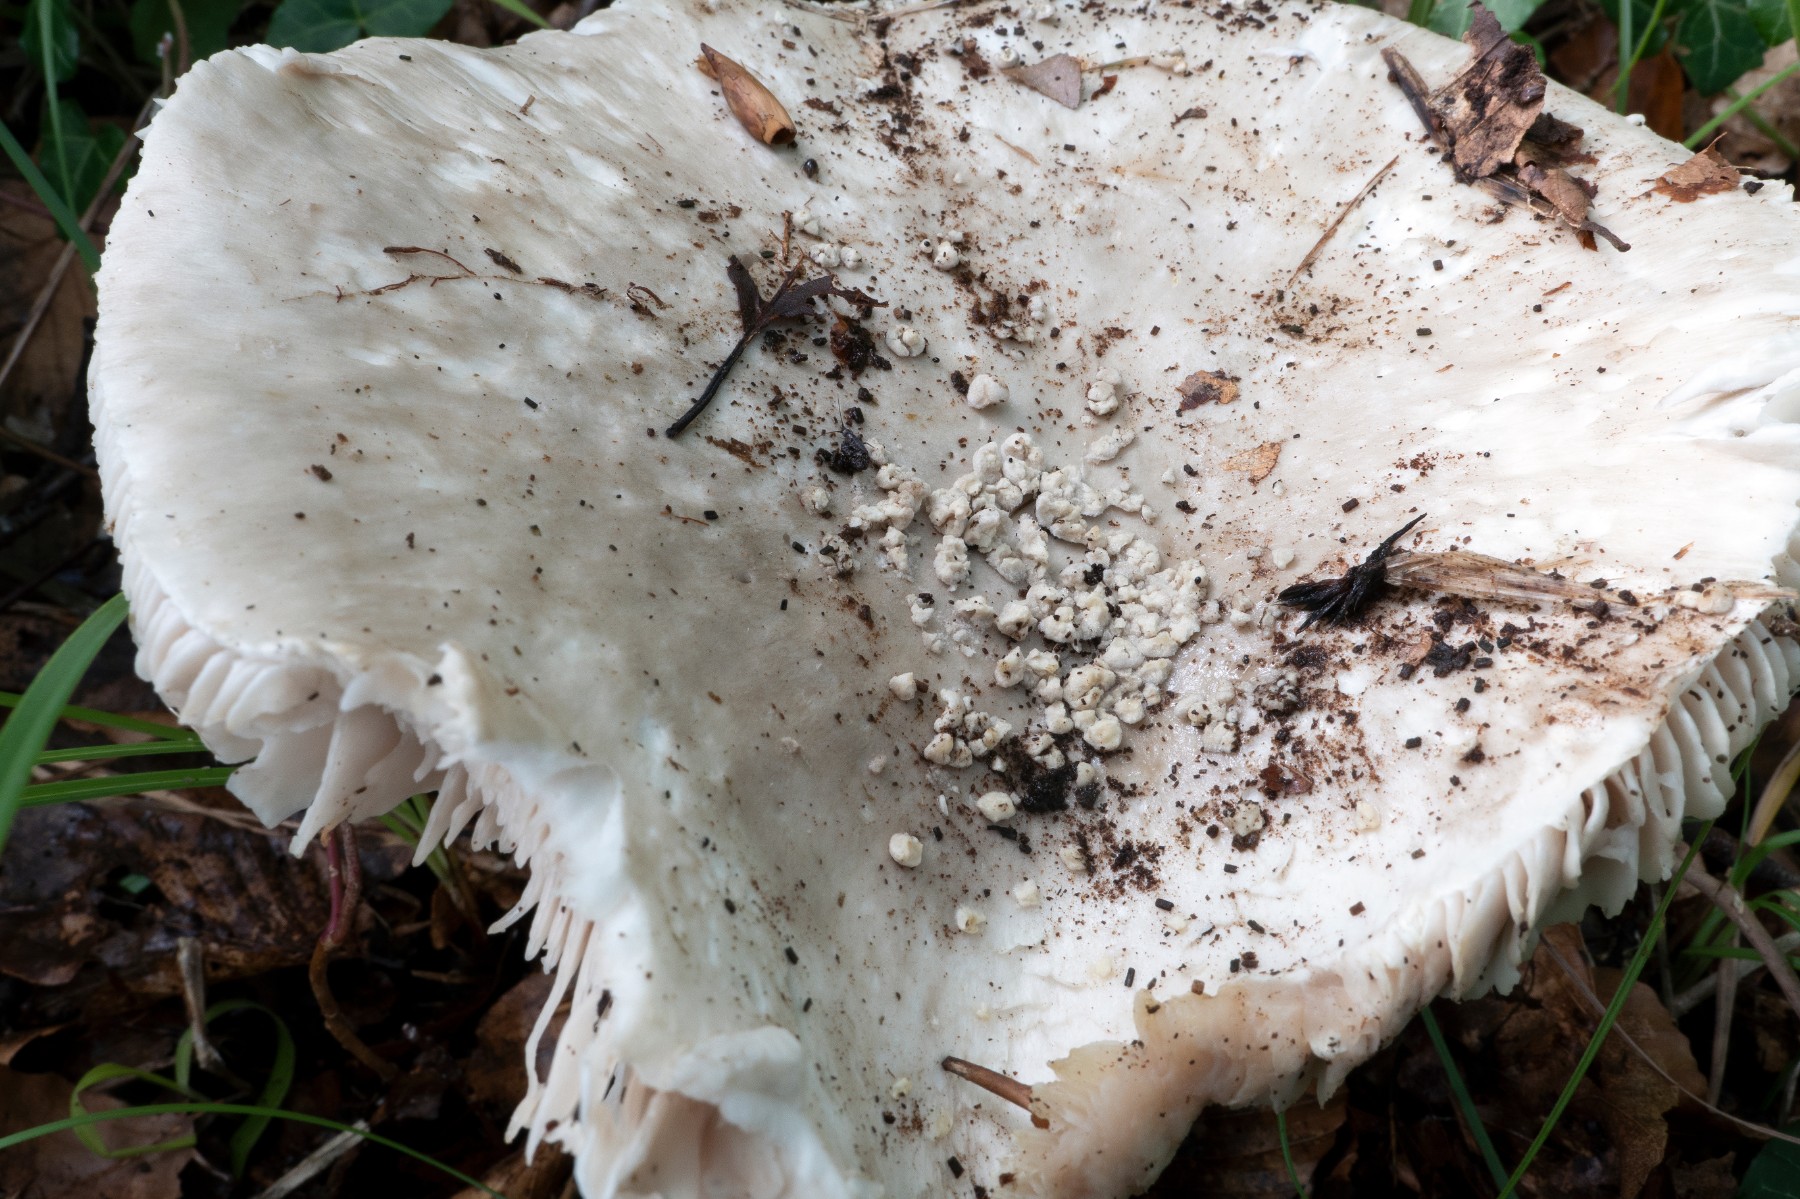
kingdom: Fungi
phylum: Basidiomycota
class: Agaricomycetes
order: Agaricales
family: Amanitaceae
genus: Aspidella
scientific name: Aspidella solitaria
